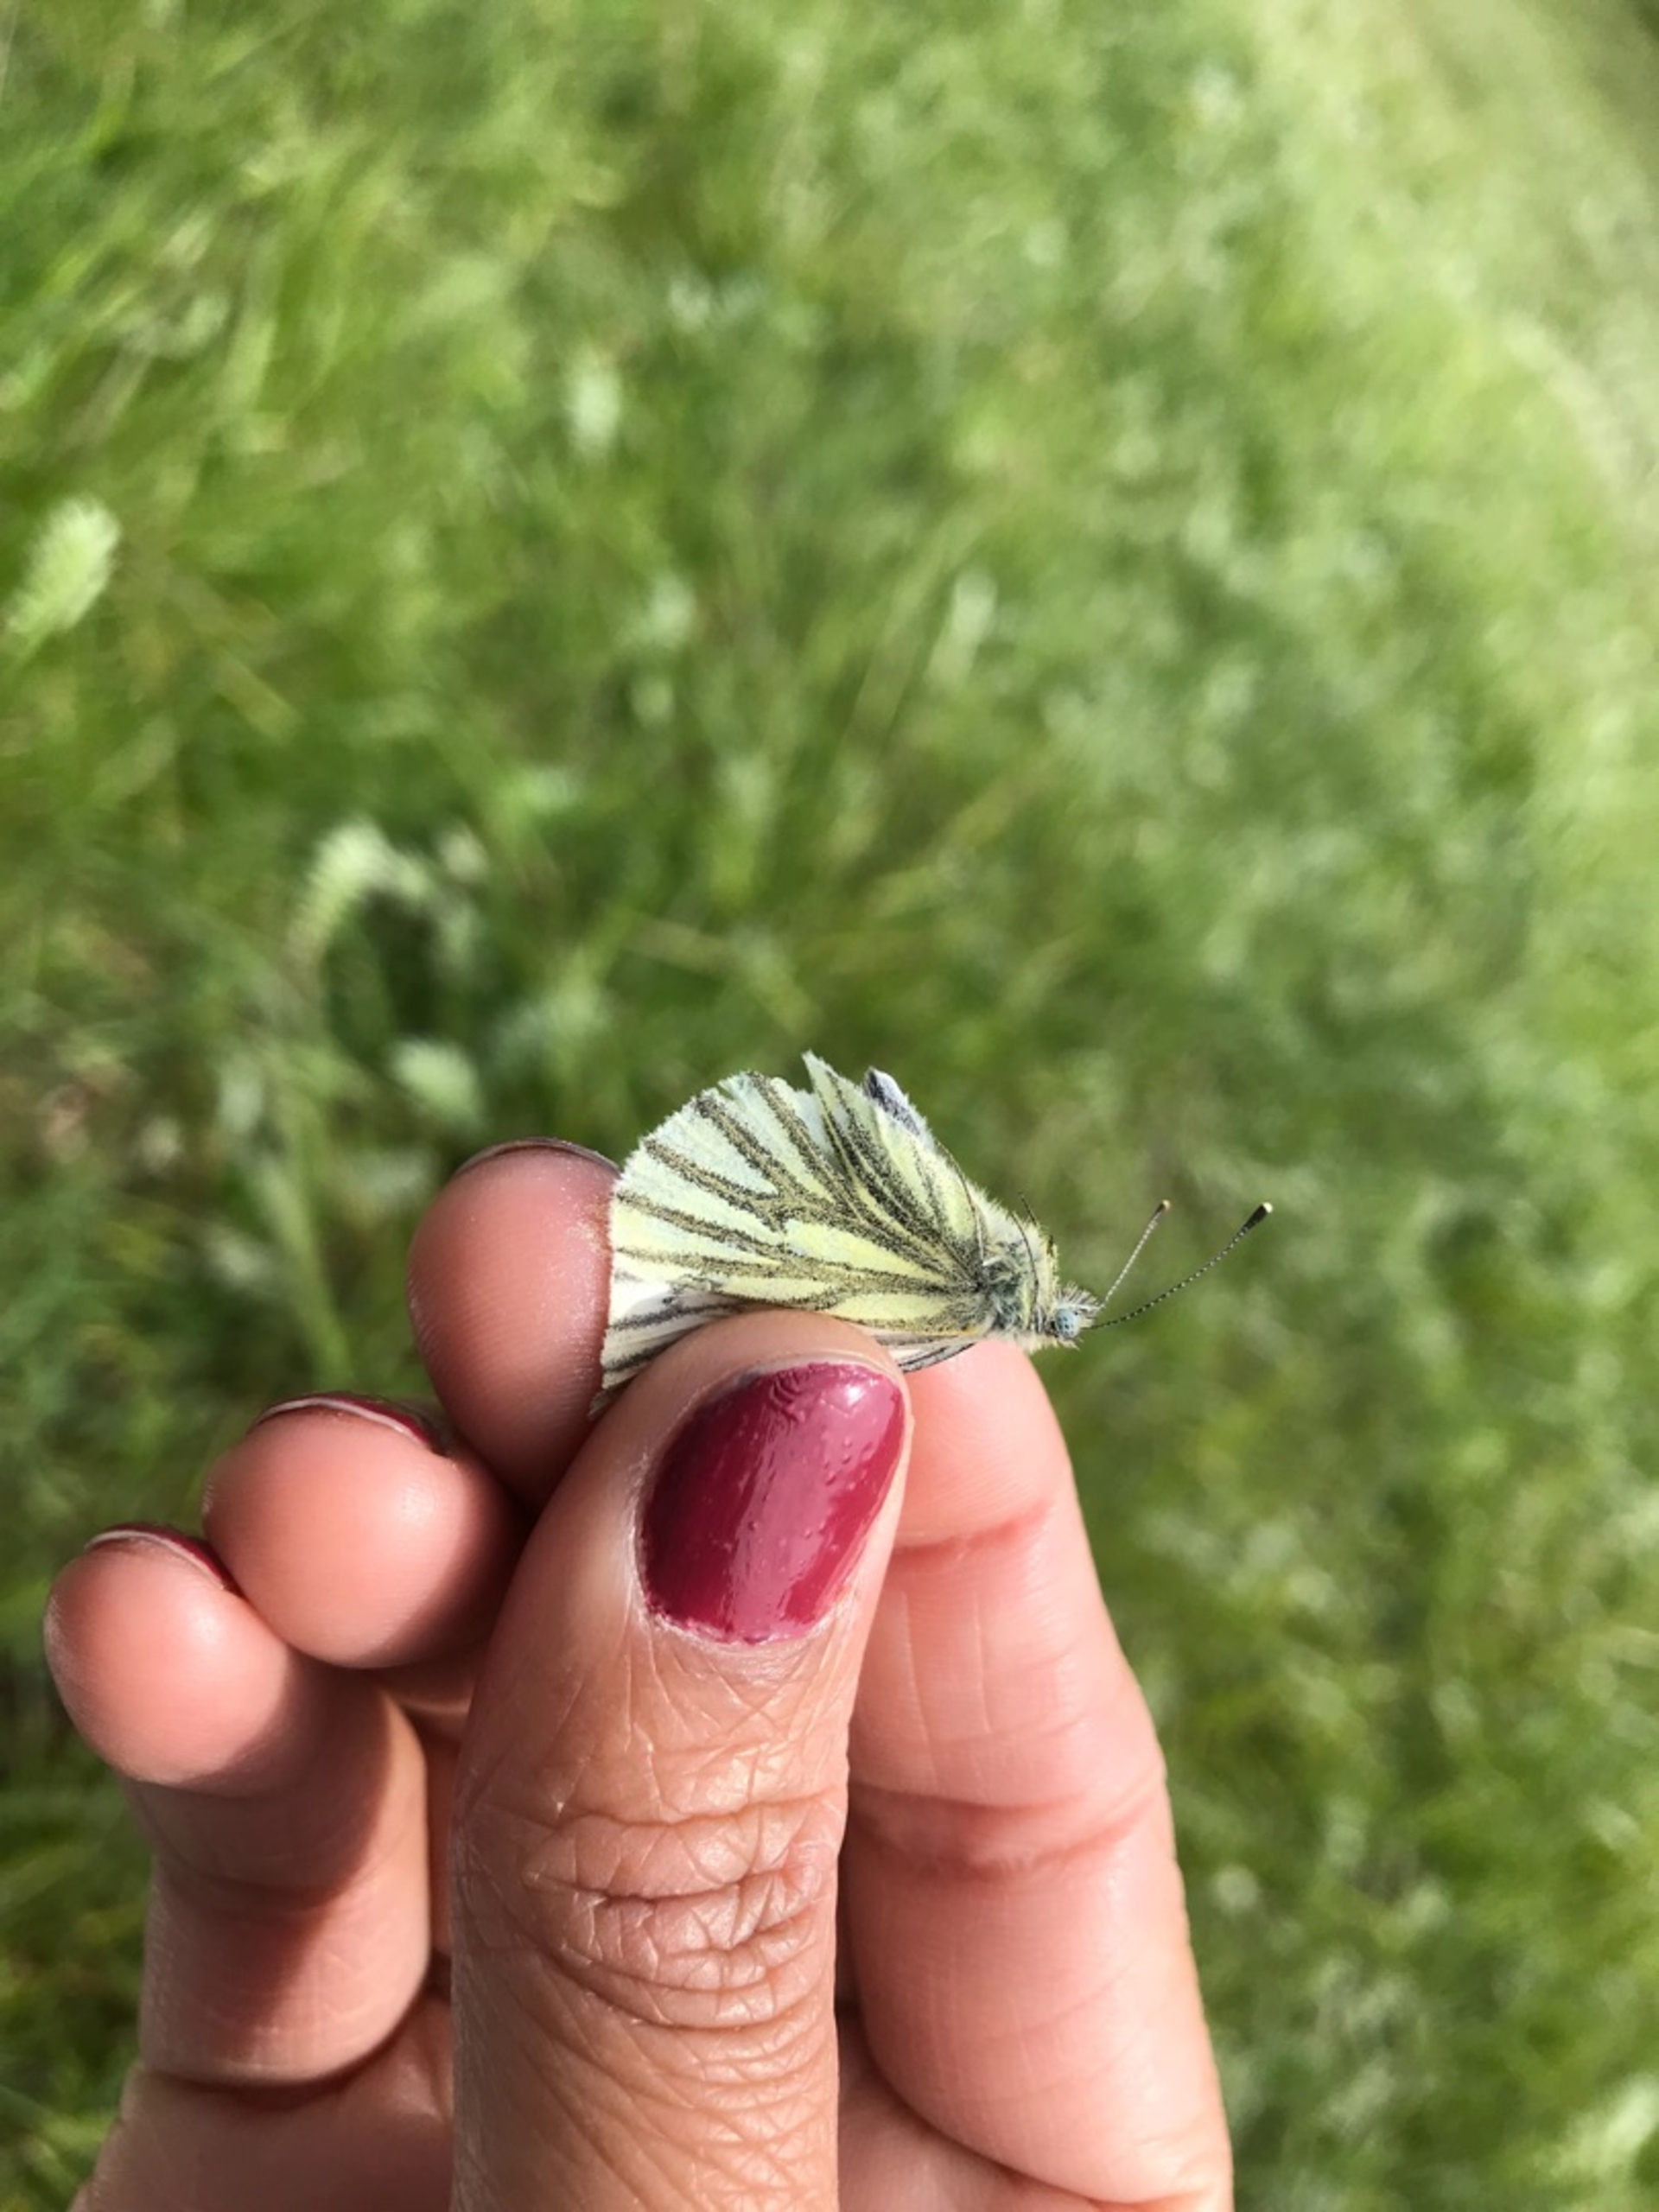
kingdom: Animalia
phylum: Arthropoda
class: Insecta
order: Lepidoptera
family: Pieridae
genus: Pieris
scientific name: Pieris napi
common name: Grønåret kålsommerfugl
